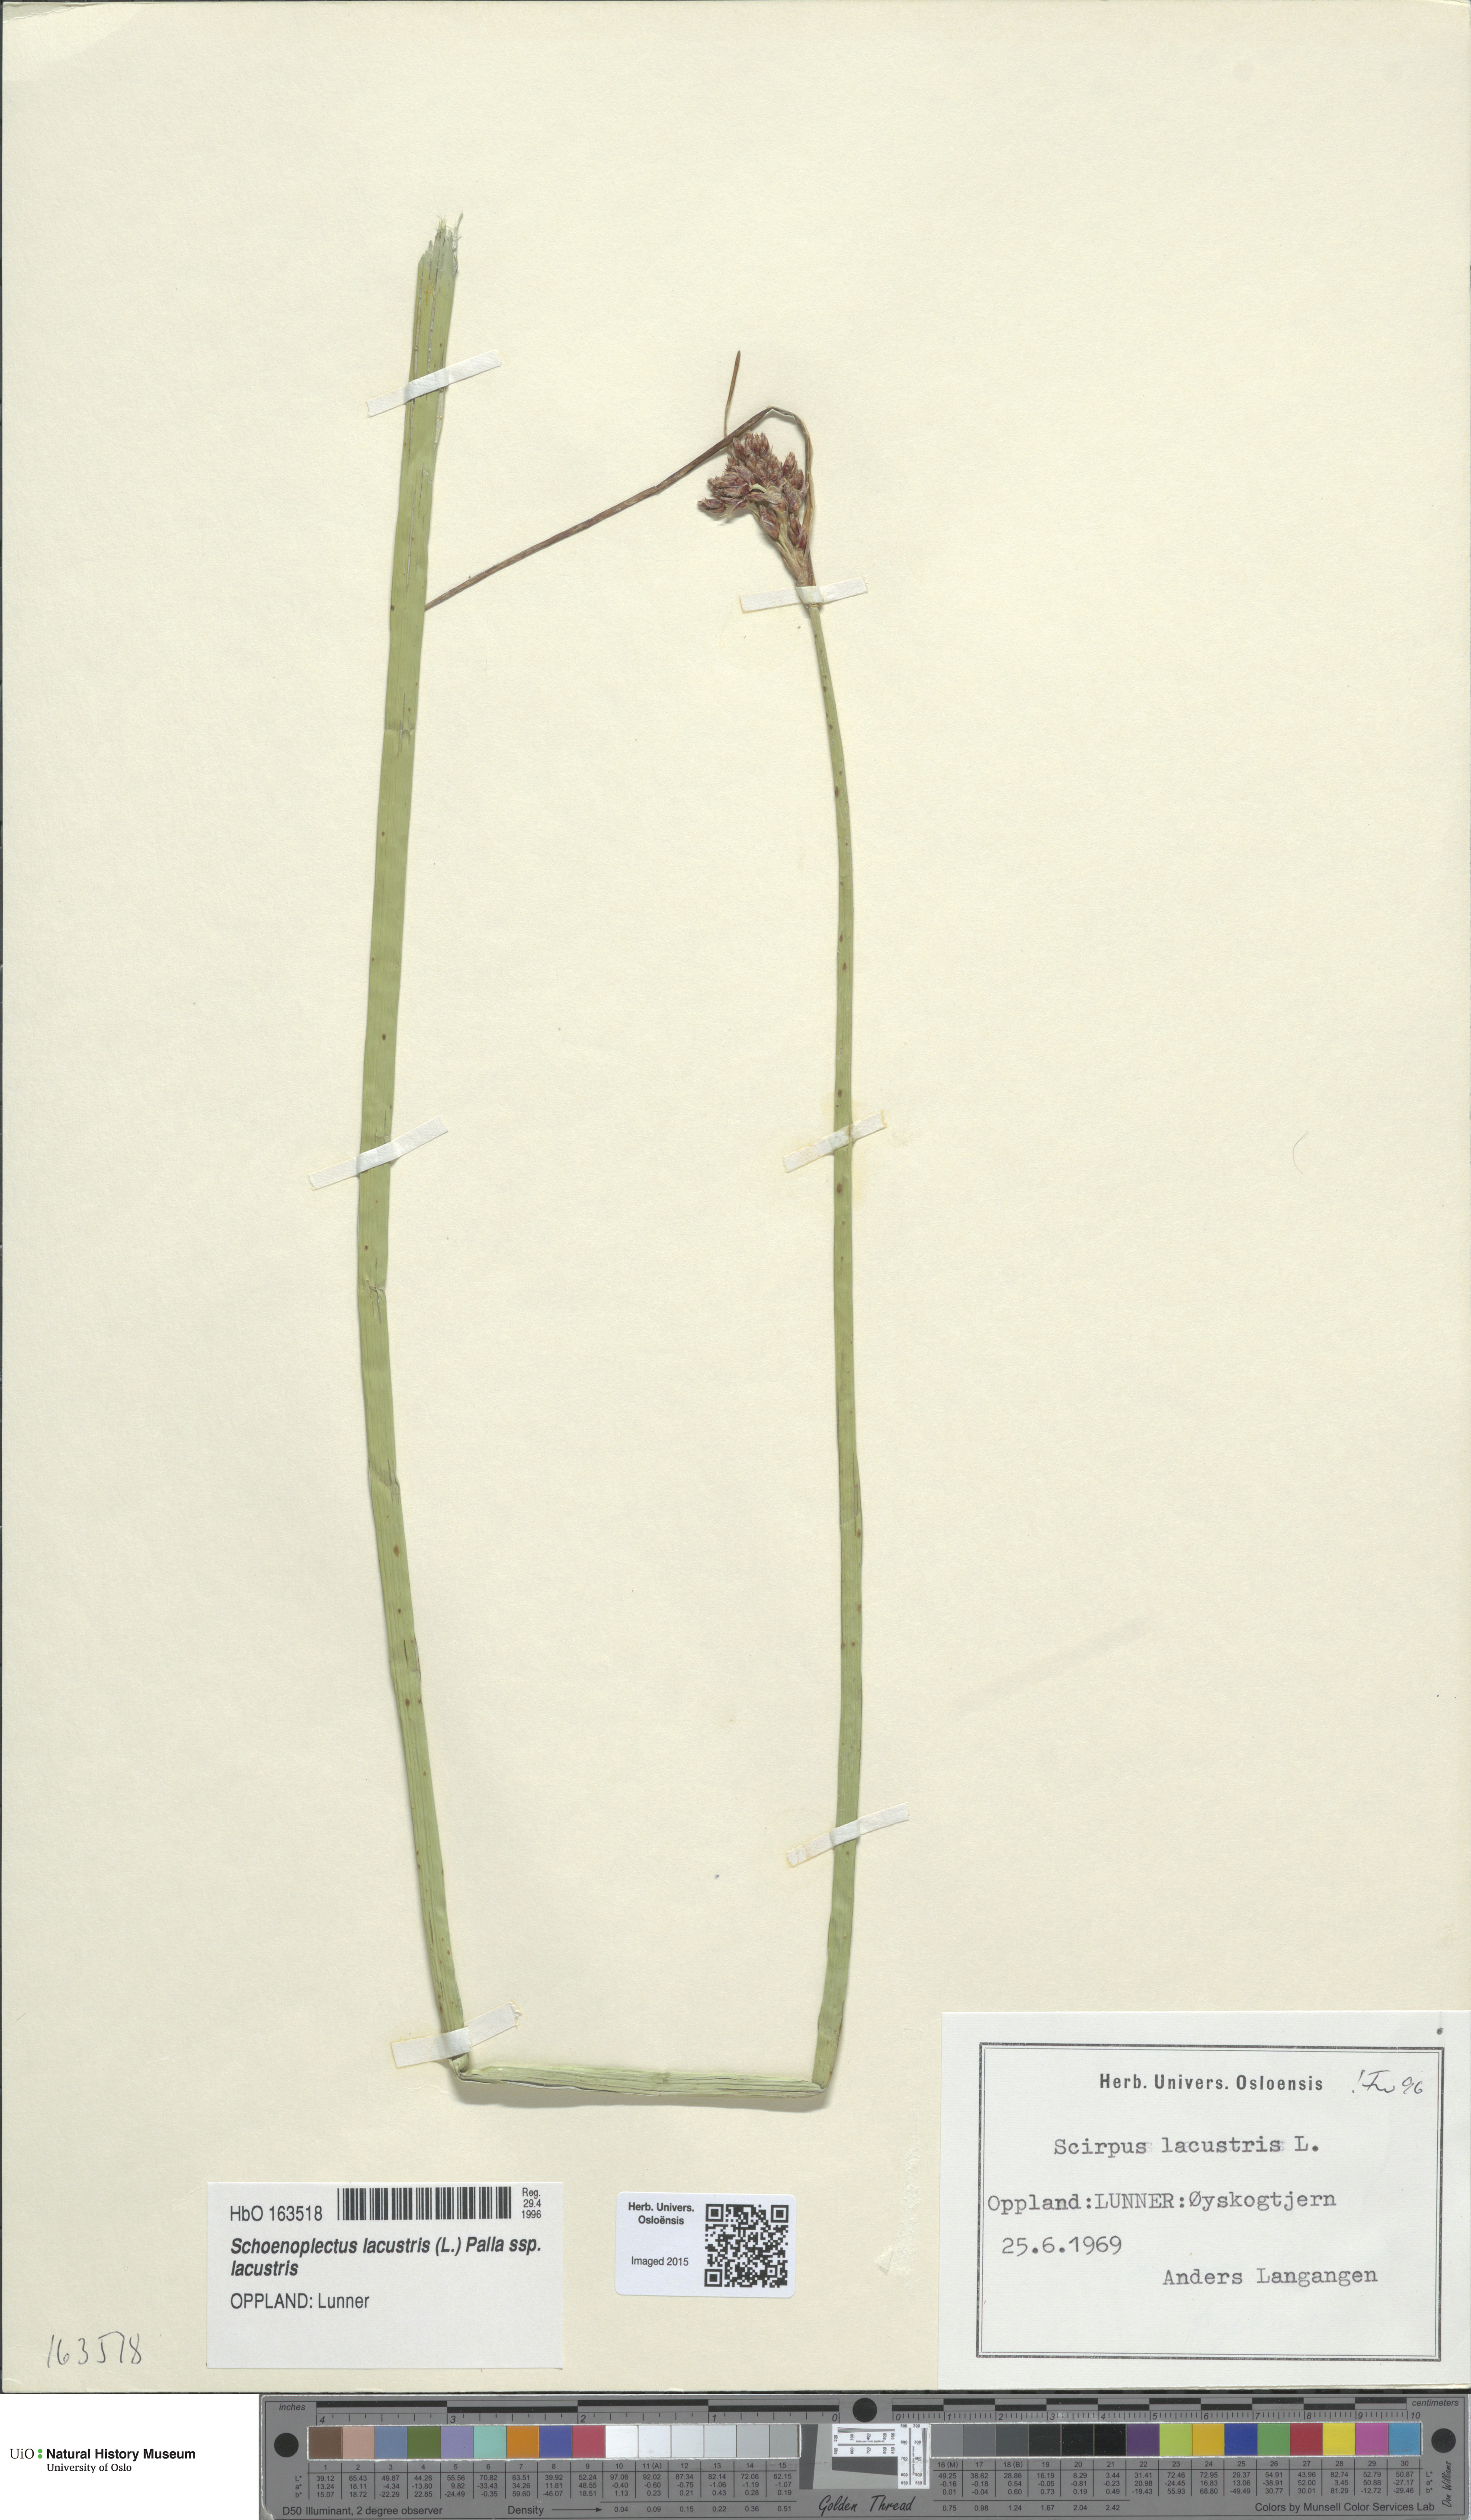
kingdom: Plantae
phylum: Tracheophyta
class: Liliopsida
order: Poales
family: Cyperaceae
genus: Schoenoplectus
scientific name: Schoenoplectus lacustris
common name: Common club-rush
